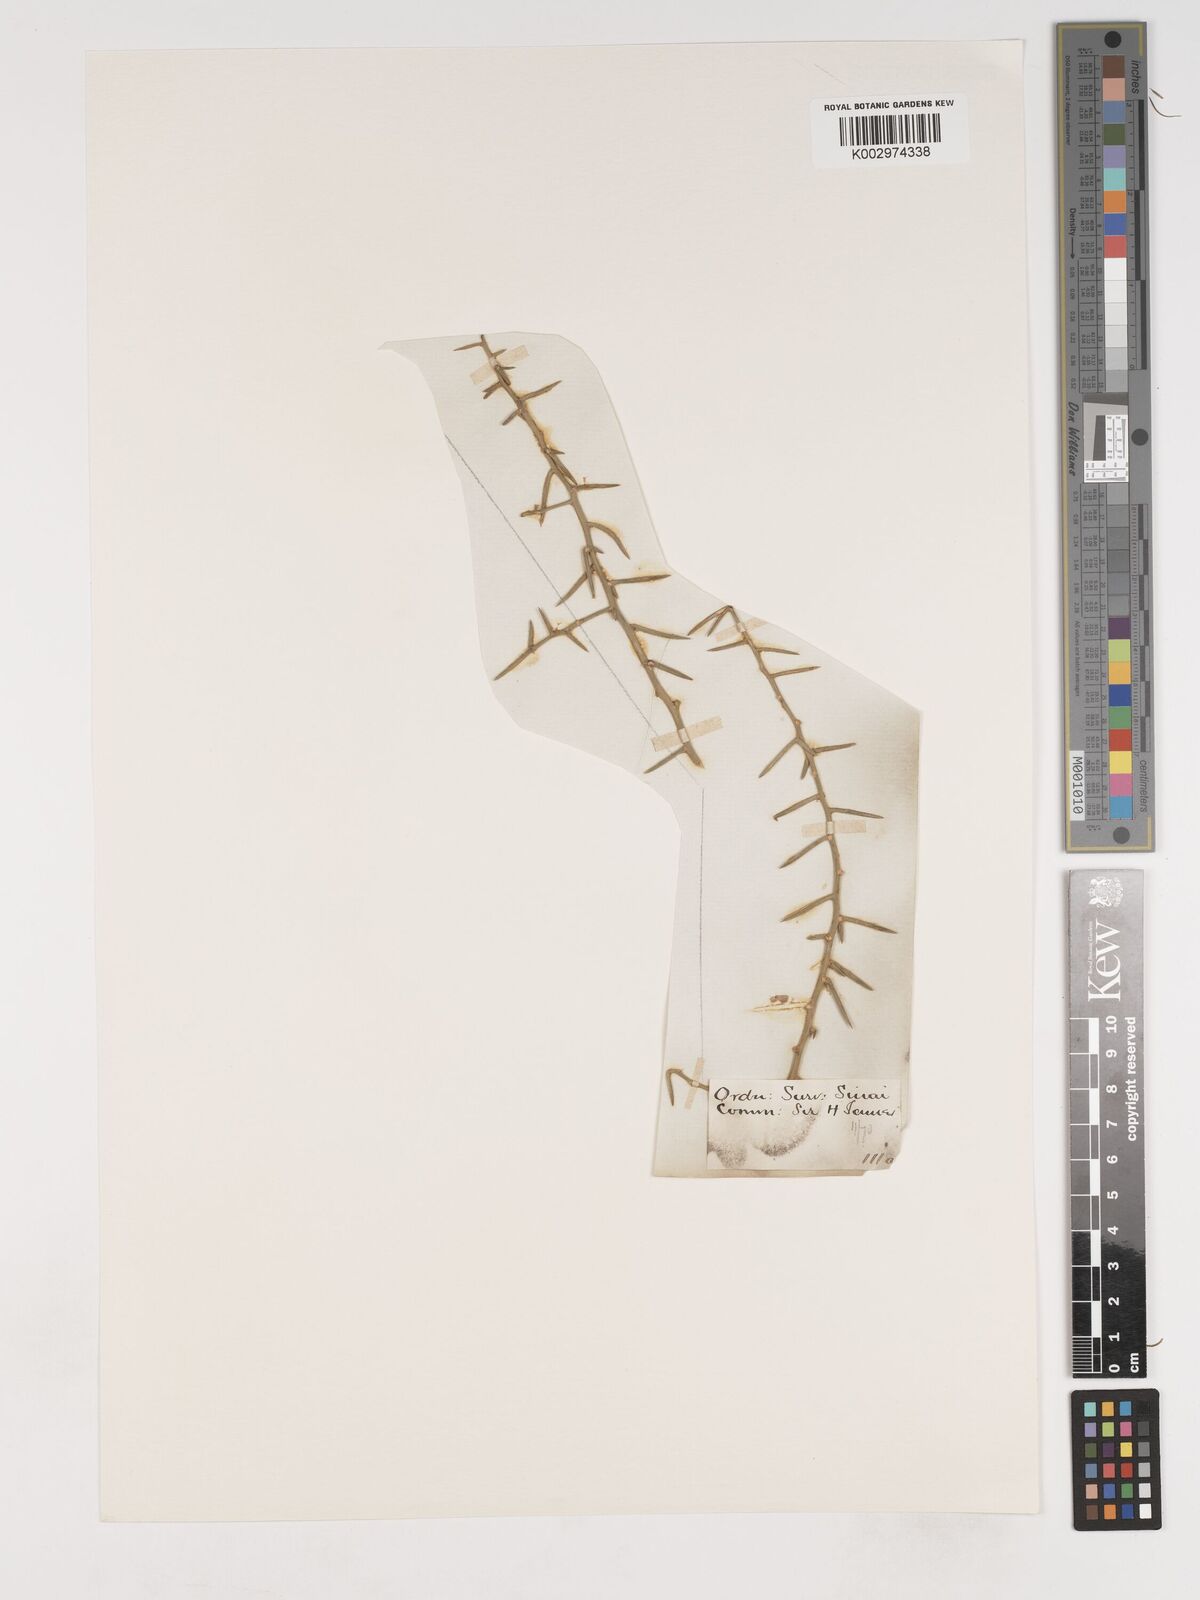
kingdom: Plantae
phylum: Tracheophyta
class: Liliopsida
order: Asparagales
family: Asparagaceae
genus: Asparagus
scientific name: Asparagus horridus
